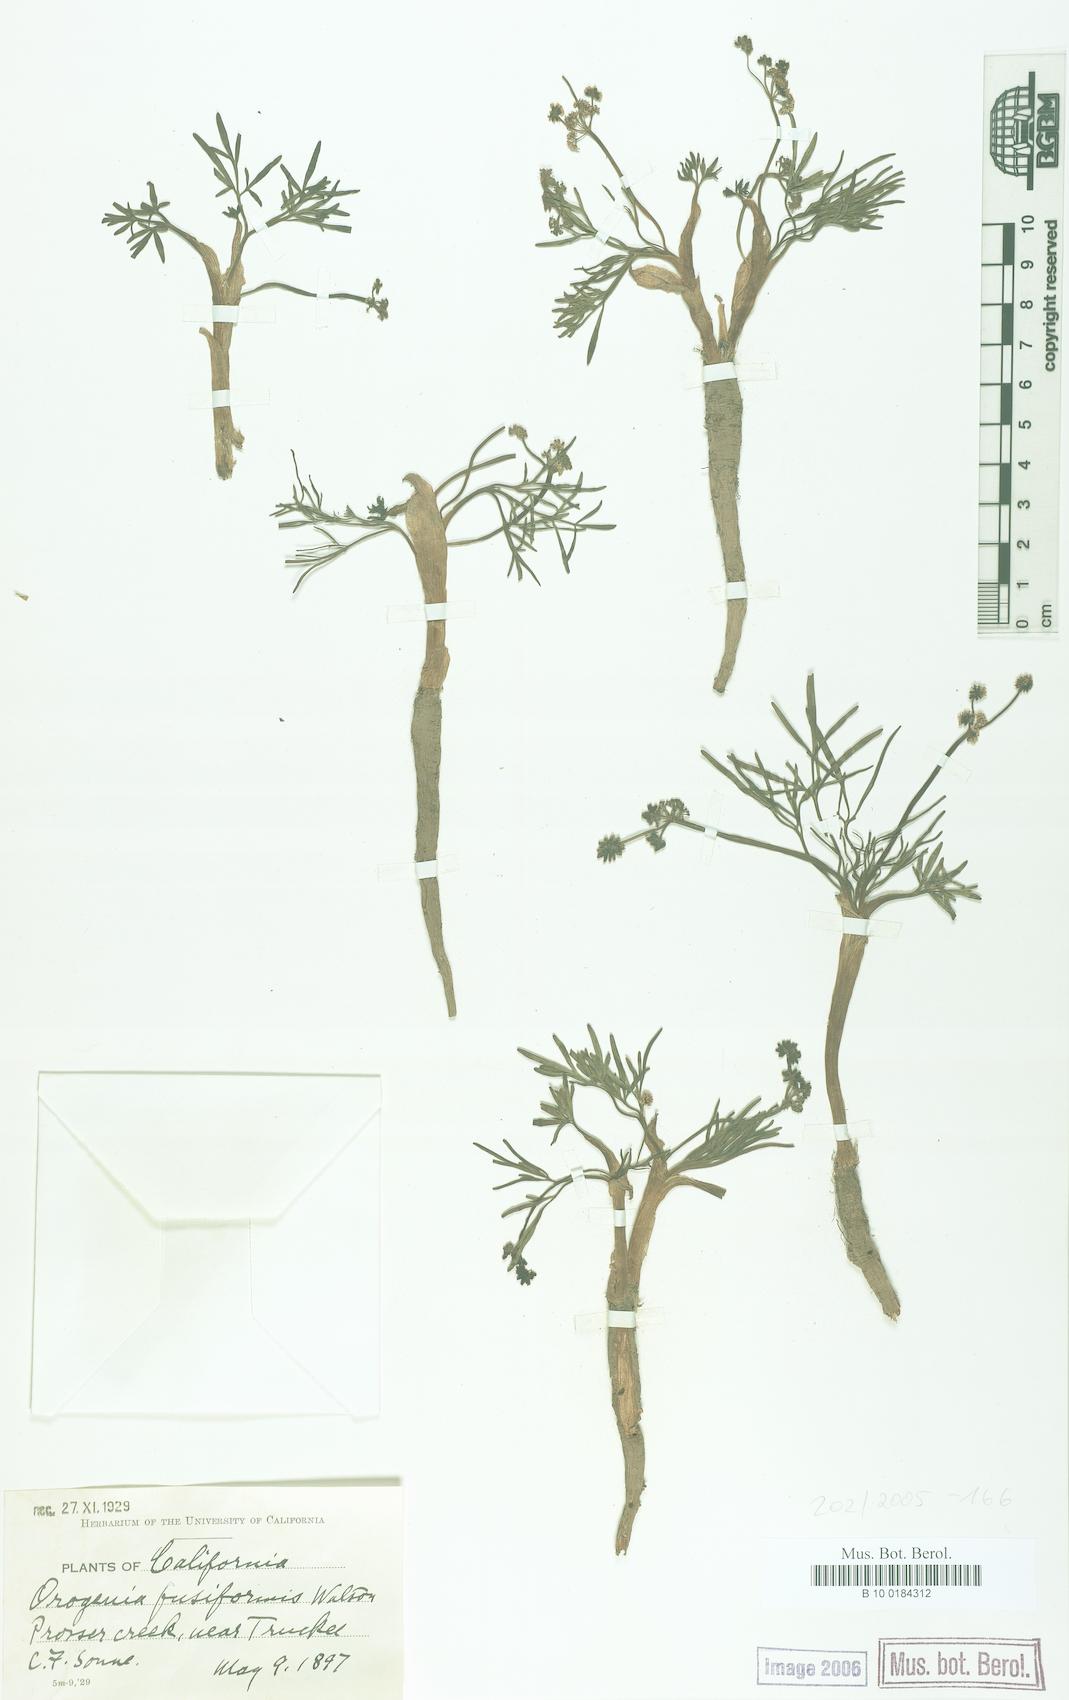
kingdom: Plantae
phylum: Tracheophyta
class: Magnoliopsida
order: Apiales
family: Apiaceae
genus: Lomatium
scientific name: Lomatium fusiformis
